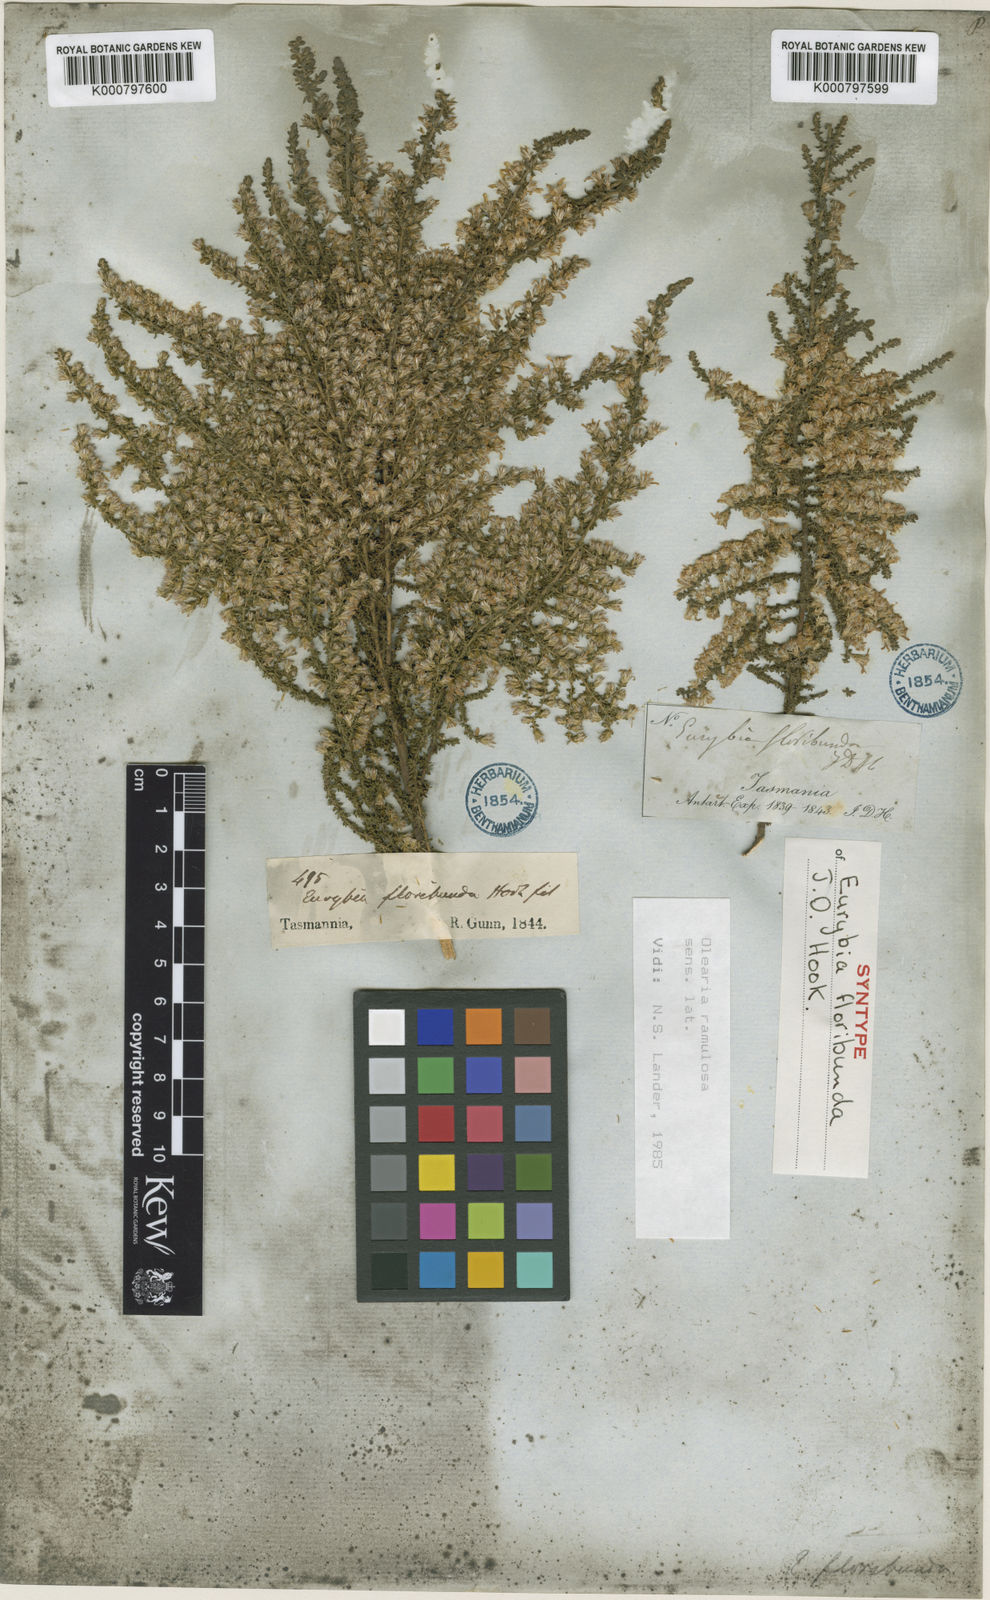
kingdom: Plantae
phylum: Tracheophyta
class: Magnoliopsida
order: Asterales
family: Asteraceae
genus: Olearia
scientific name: Olearia floribunda
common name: Heath daisybush
